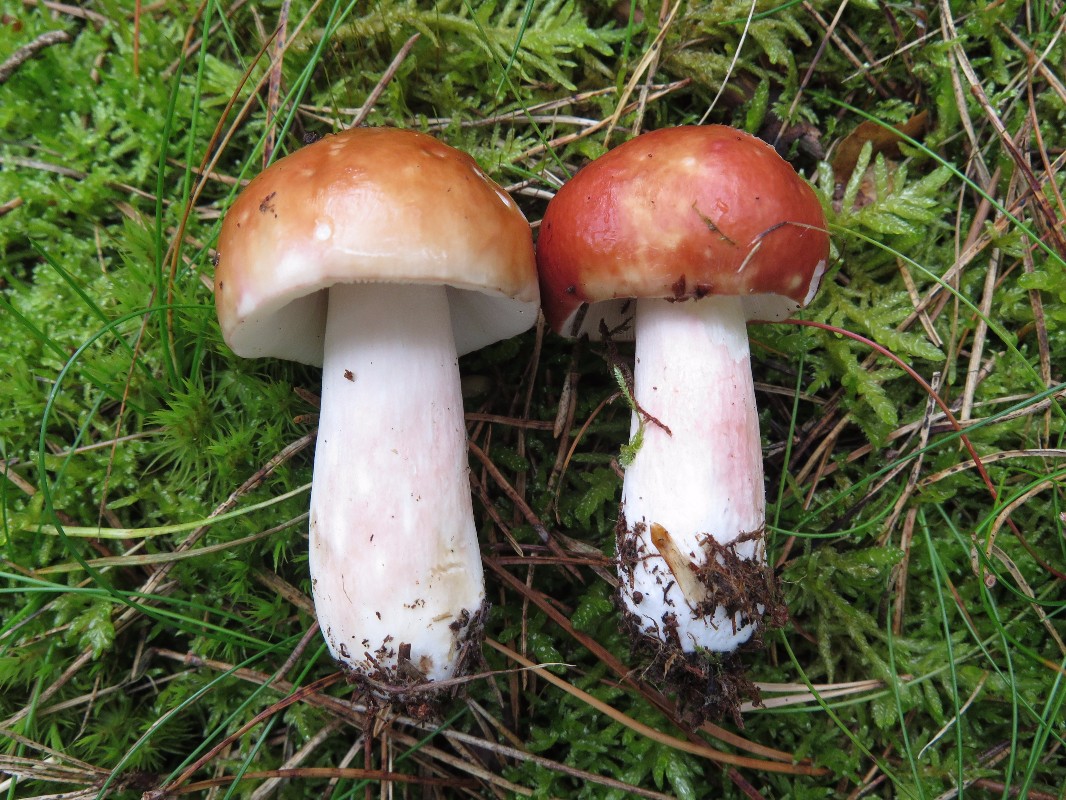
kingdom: Fungi
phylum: Basidiomycota
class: Agaricomycetes
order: Russulales
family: Russulaceae
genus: Russula
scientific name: Russula paludosa
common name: prægtig skørhat
